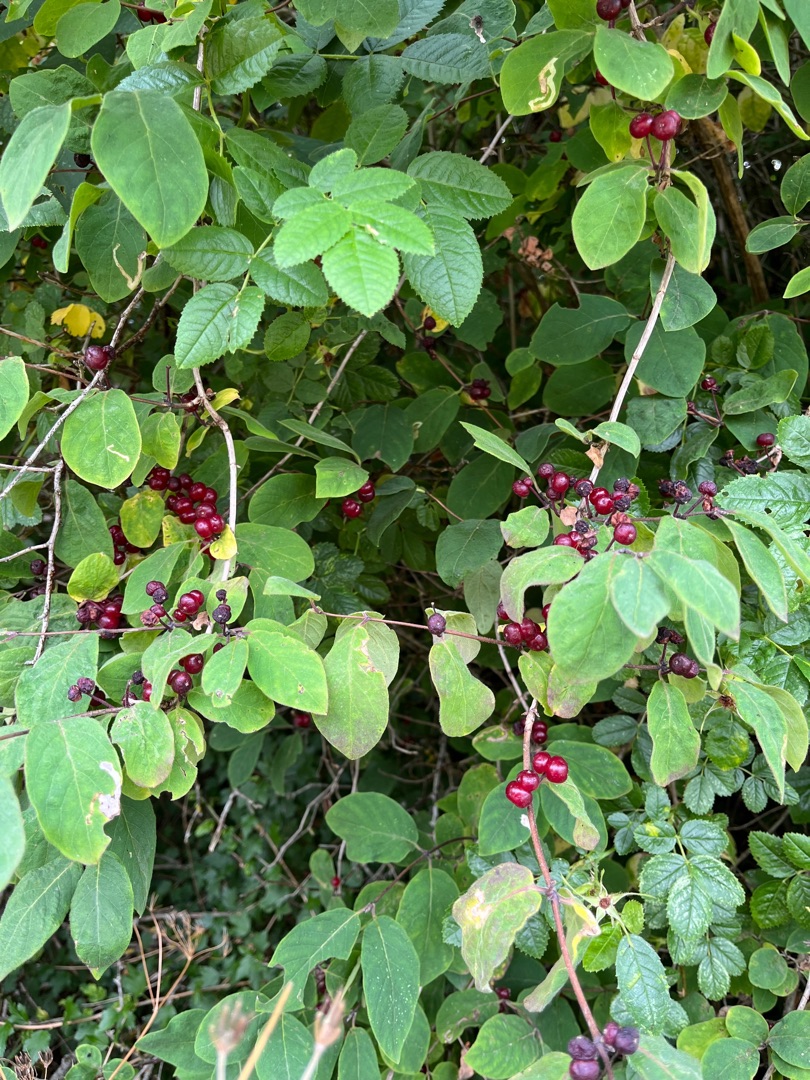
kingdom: Plantae
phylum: Tracheophyta
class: Magnoliopsida
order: Dipsacales
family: Caprifoliaceae
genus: Lonicera
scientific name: Lonicera xylosteum
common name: Dunet gedeblad
